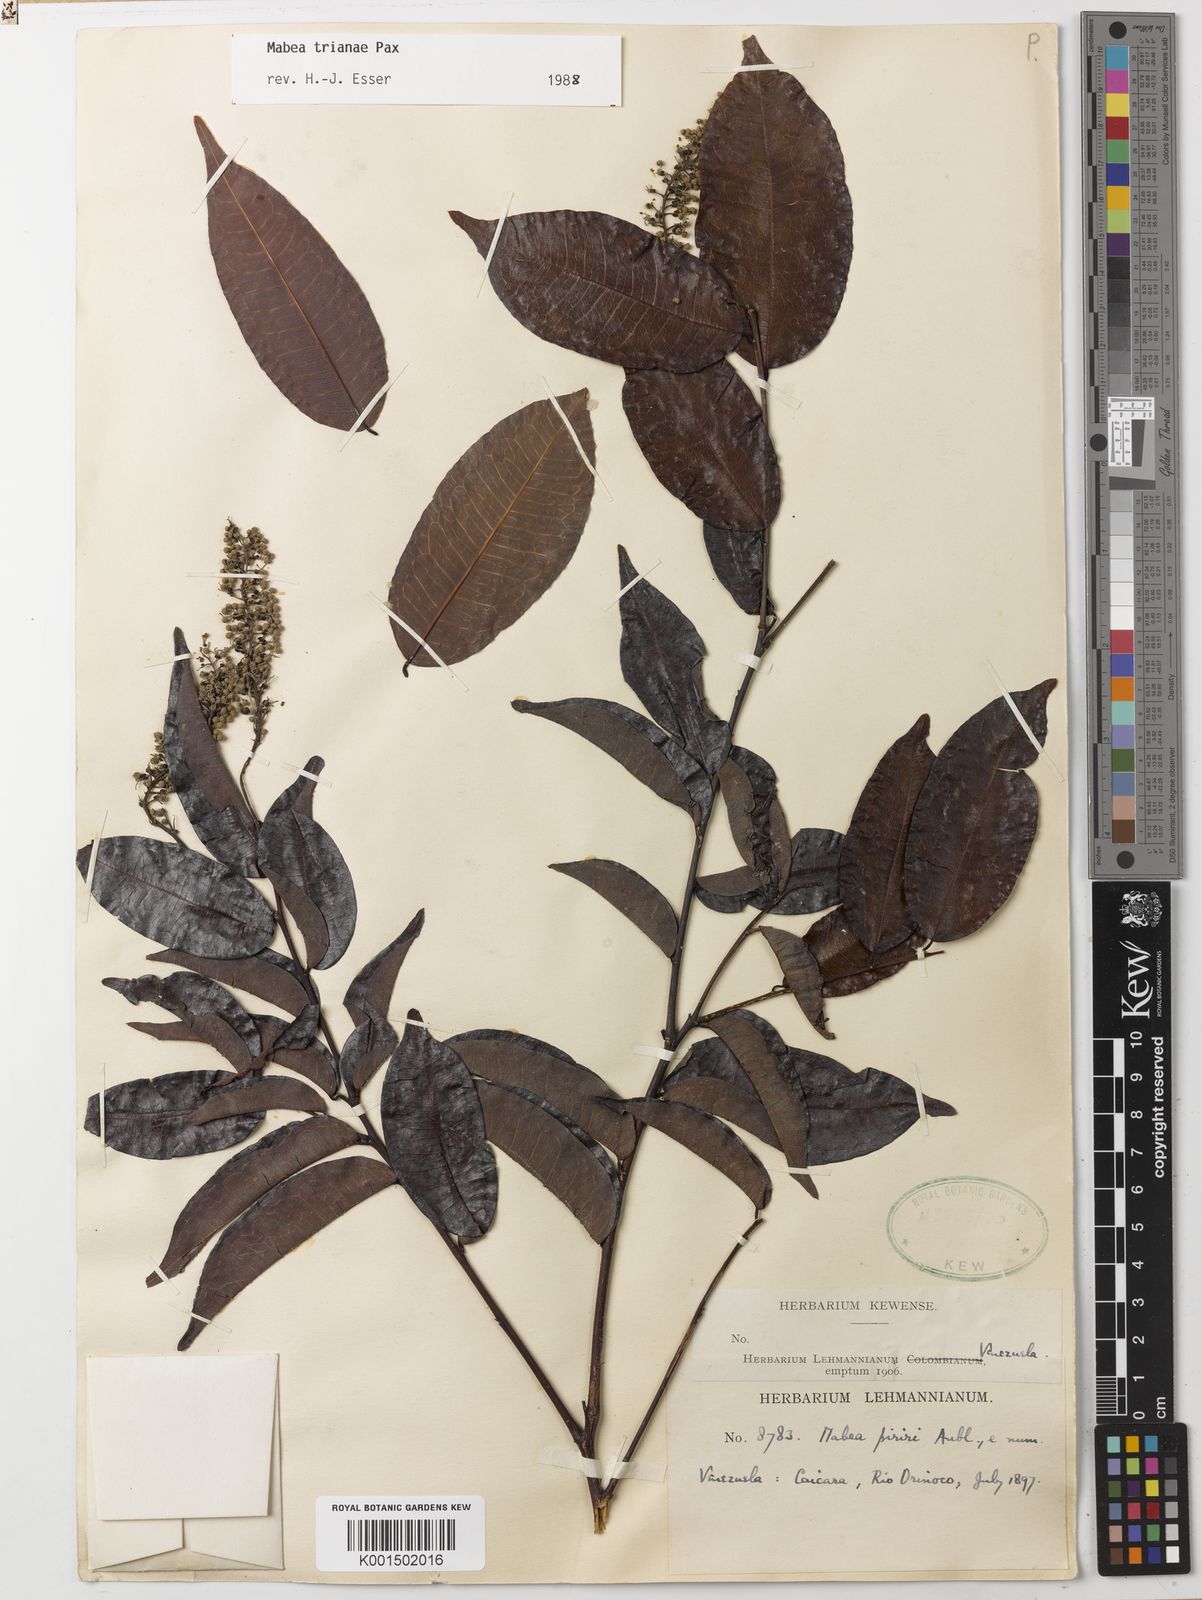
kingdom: Plantae
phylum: Tracheophyta
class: Magnoliopsida
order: Malpighiales
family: Euphorbiaceae
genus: Mabea
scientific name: Mabea trianae
